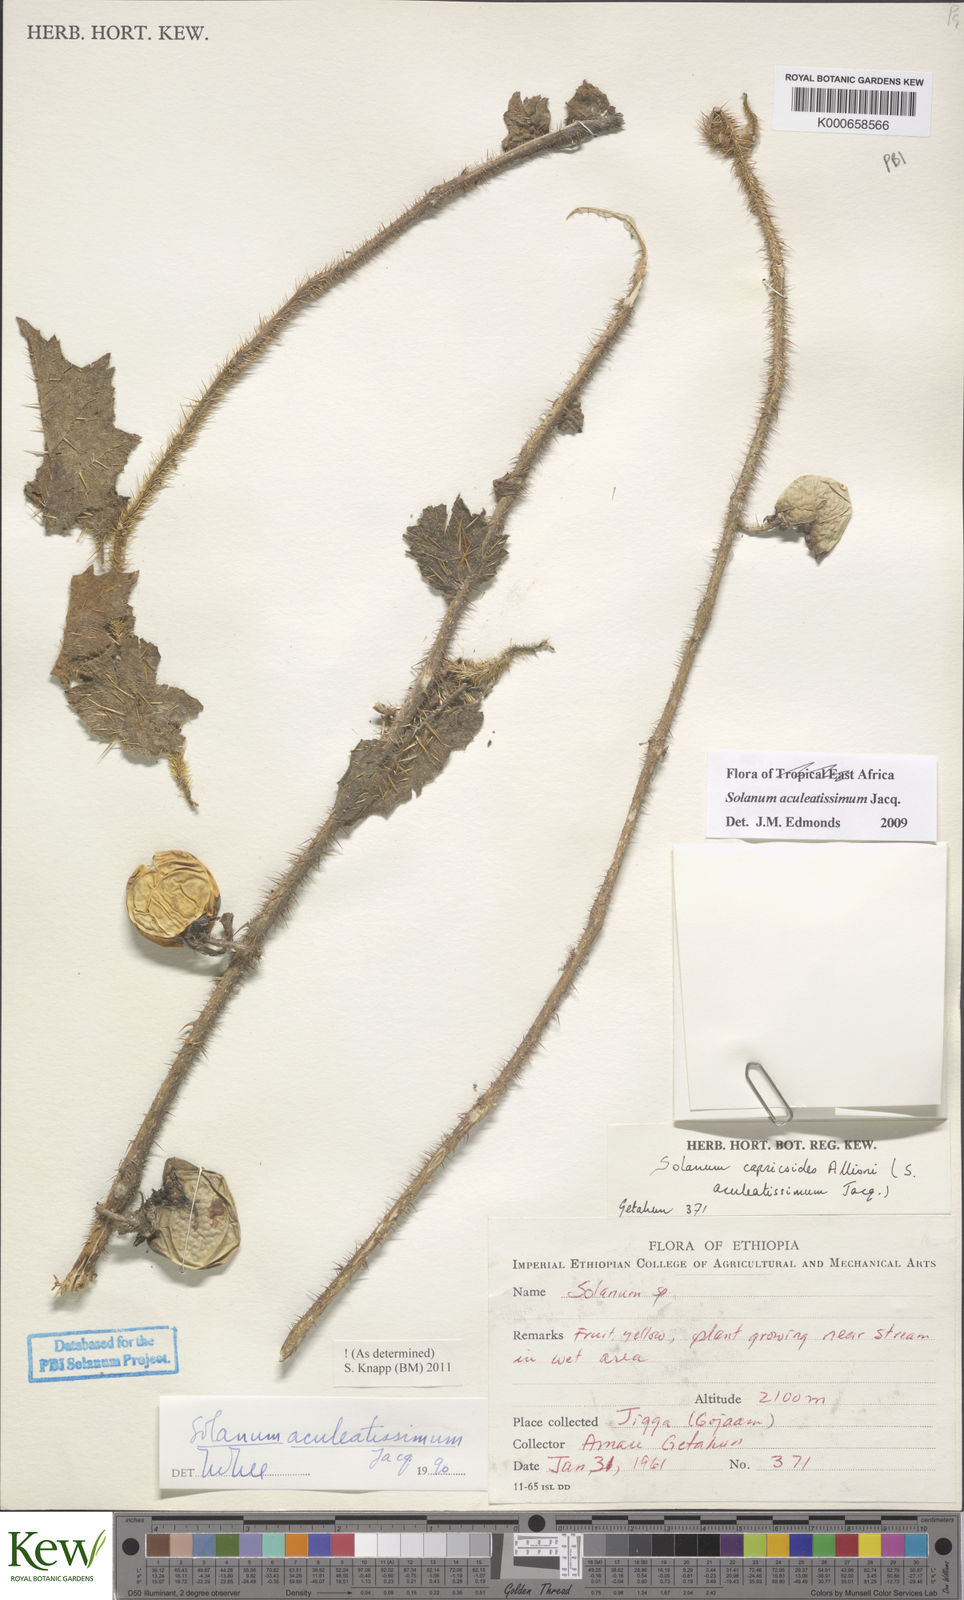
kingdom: Plantae
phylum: Tracheophyta
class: Magnoliopsida
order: Solanales
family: Solanaceae
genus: Solanum
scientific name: Solanum aculeatissimum
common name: Dutch eggplant
